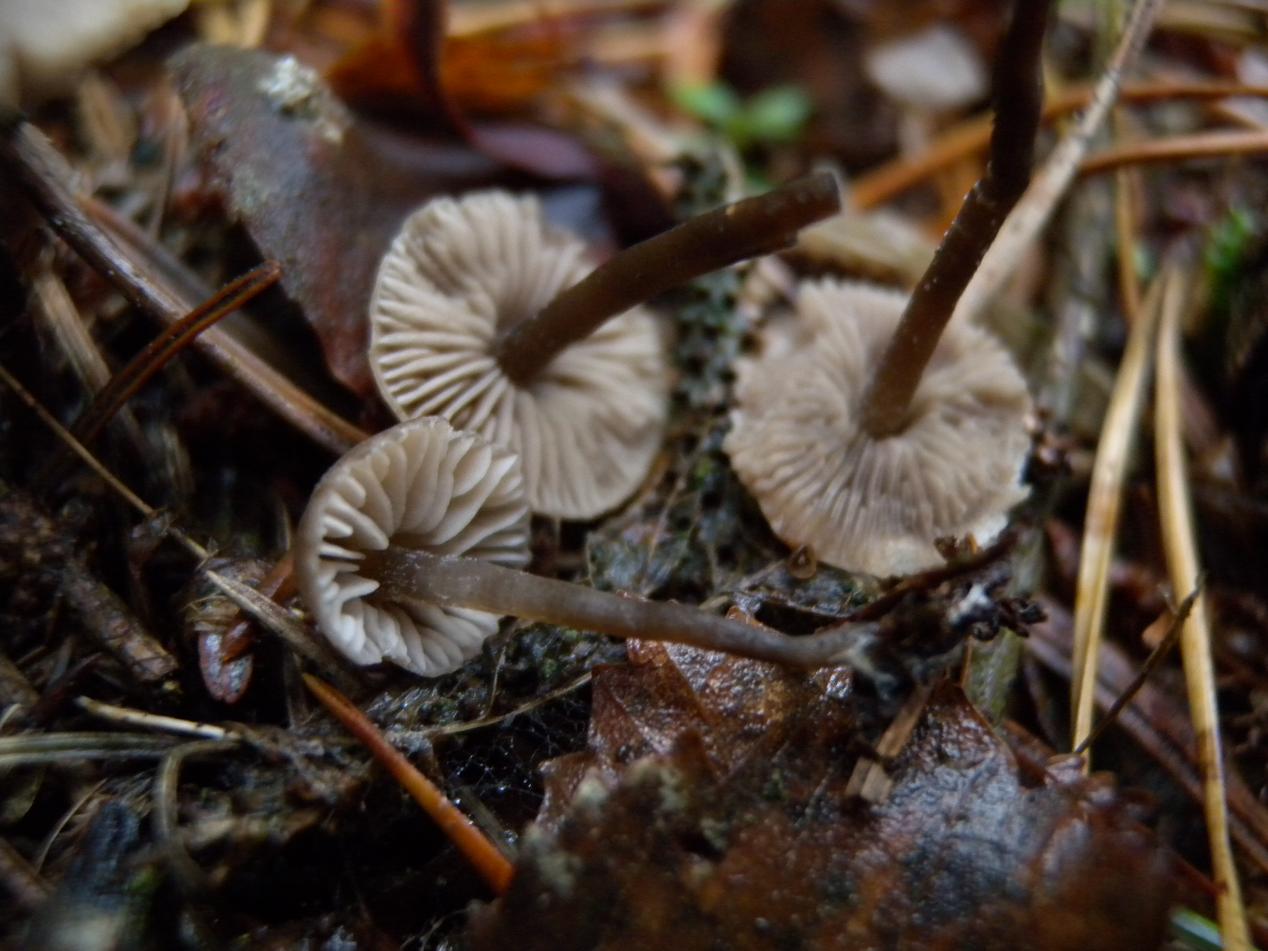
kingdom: Fungi
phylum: Basidiomycota
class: Agaricomycetes
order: Agaricales
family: Lyophyllaceae
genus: Sagaranella
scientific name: Sagaranella gibberosa
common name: pukkelsporet gråblad
